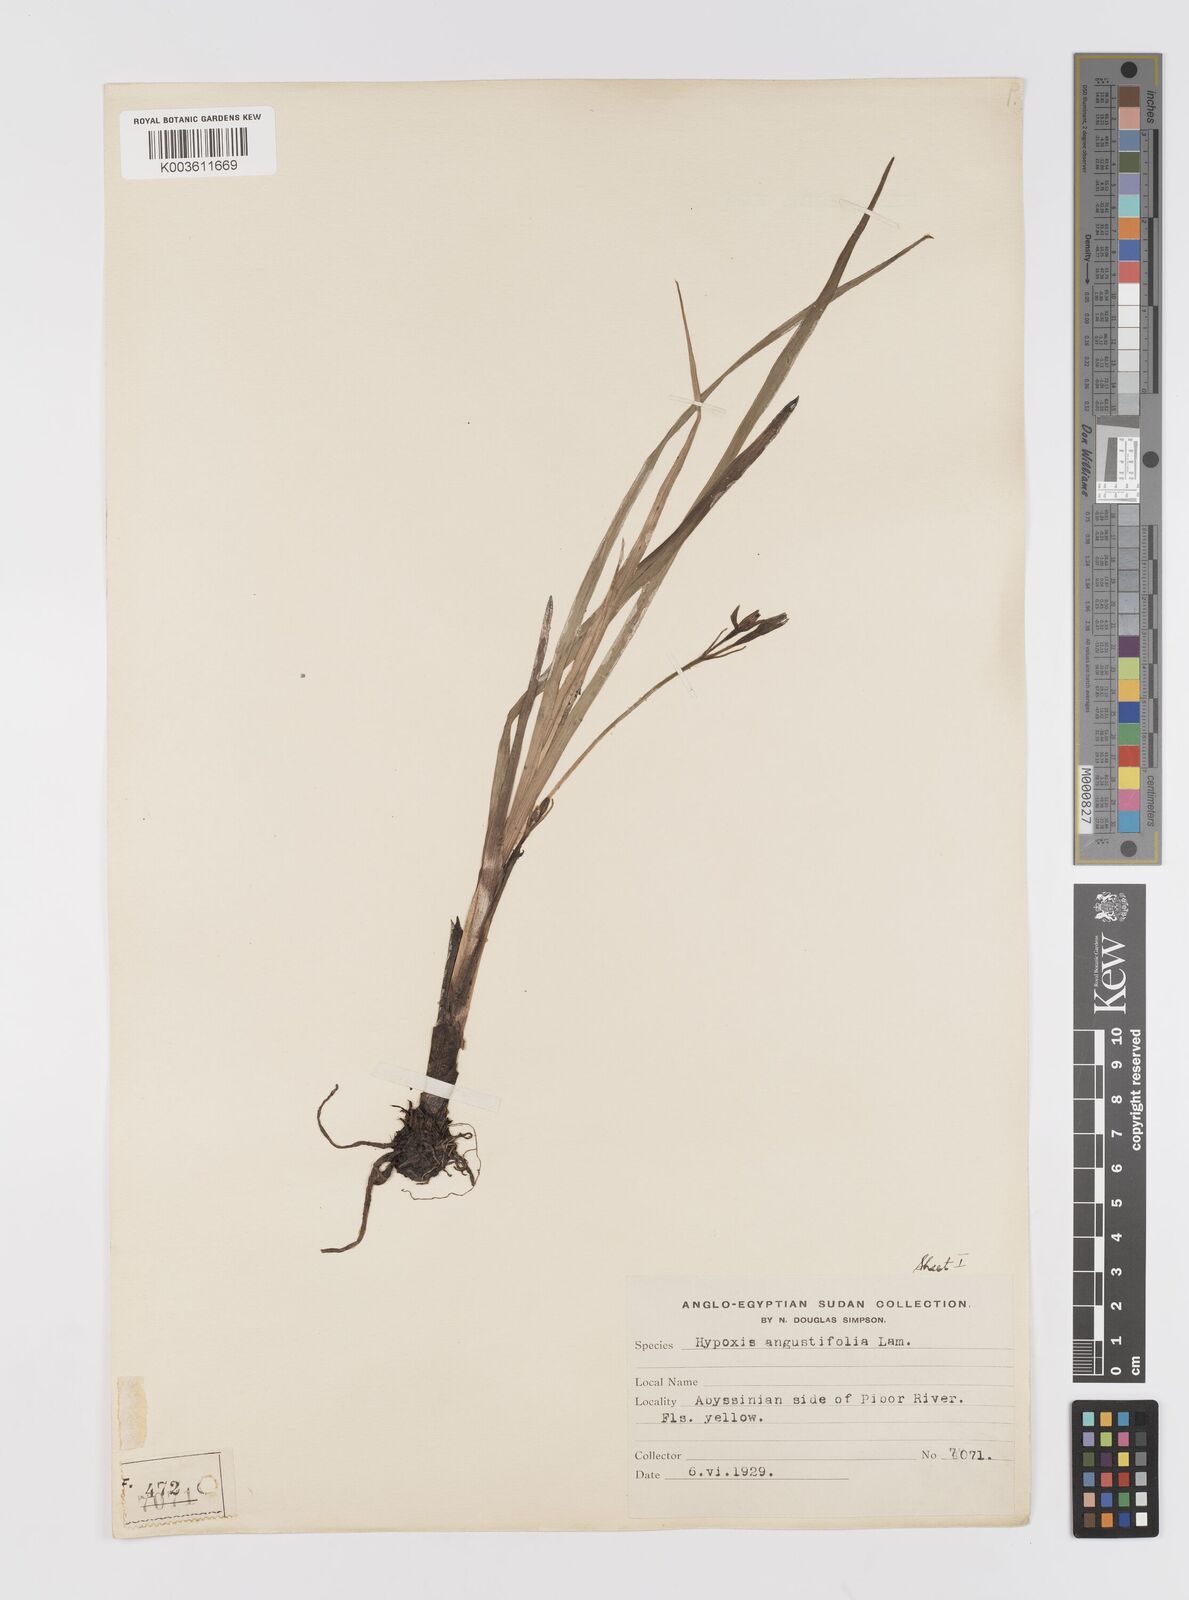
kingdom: Plantae
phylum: Tracheophyta
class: Liliopsida
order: Asparagales
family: Hypoxidaceae
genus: Hypoxis
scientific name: Hypoxis angustifolia
